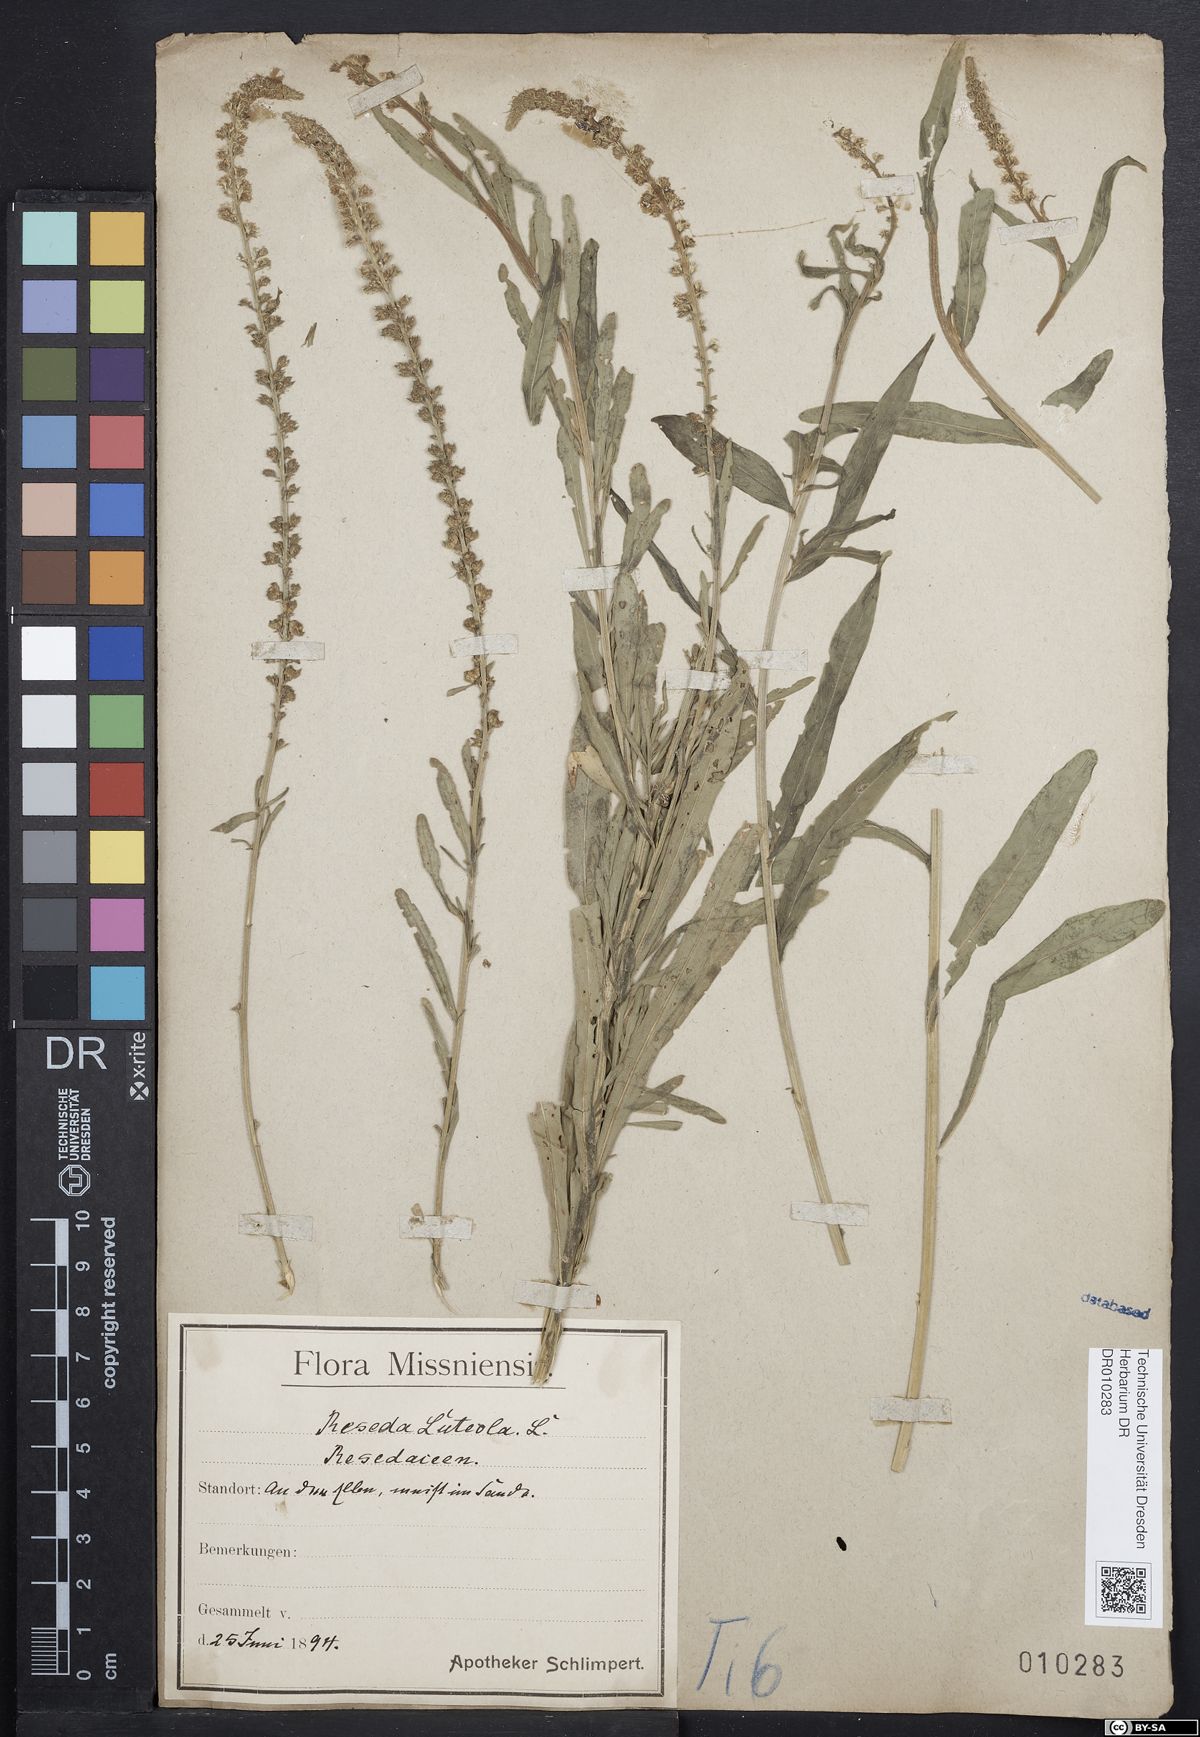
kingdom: Plantae
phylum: Tracheophyta
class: Magnoliopsida
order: Brassicales
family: Resedaceae
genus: Reseda
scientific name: Reseda luteola
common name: Weld
